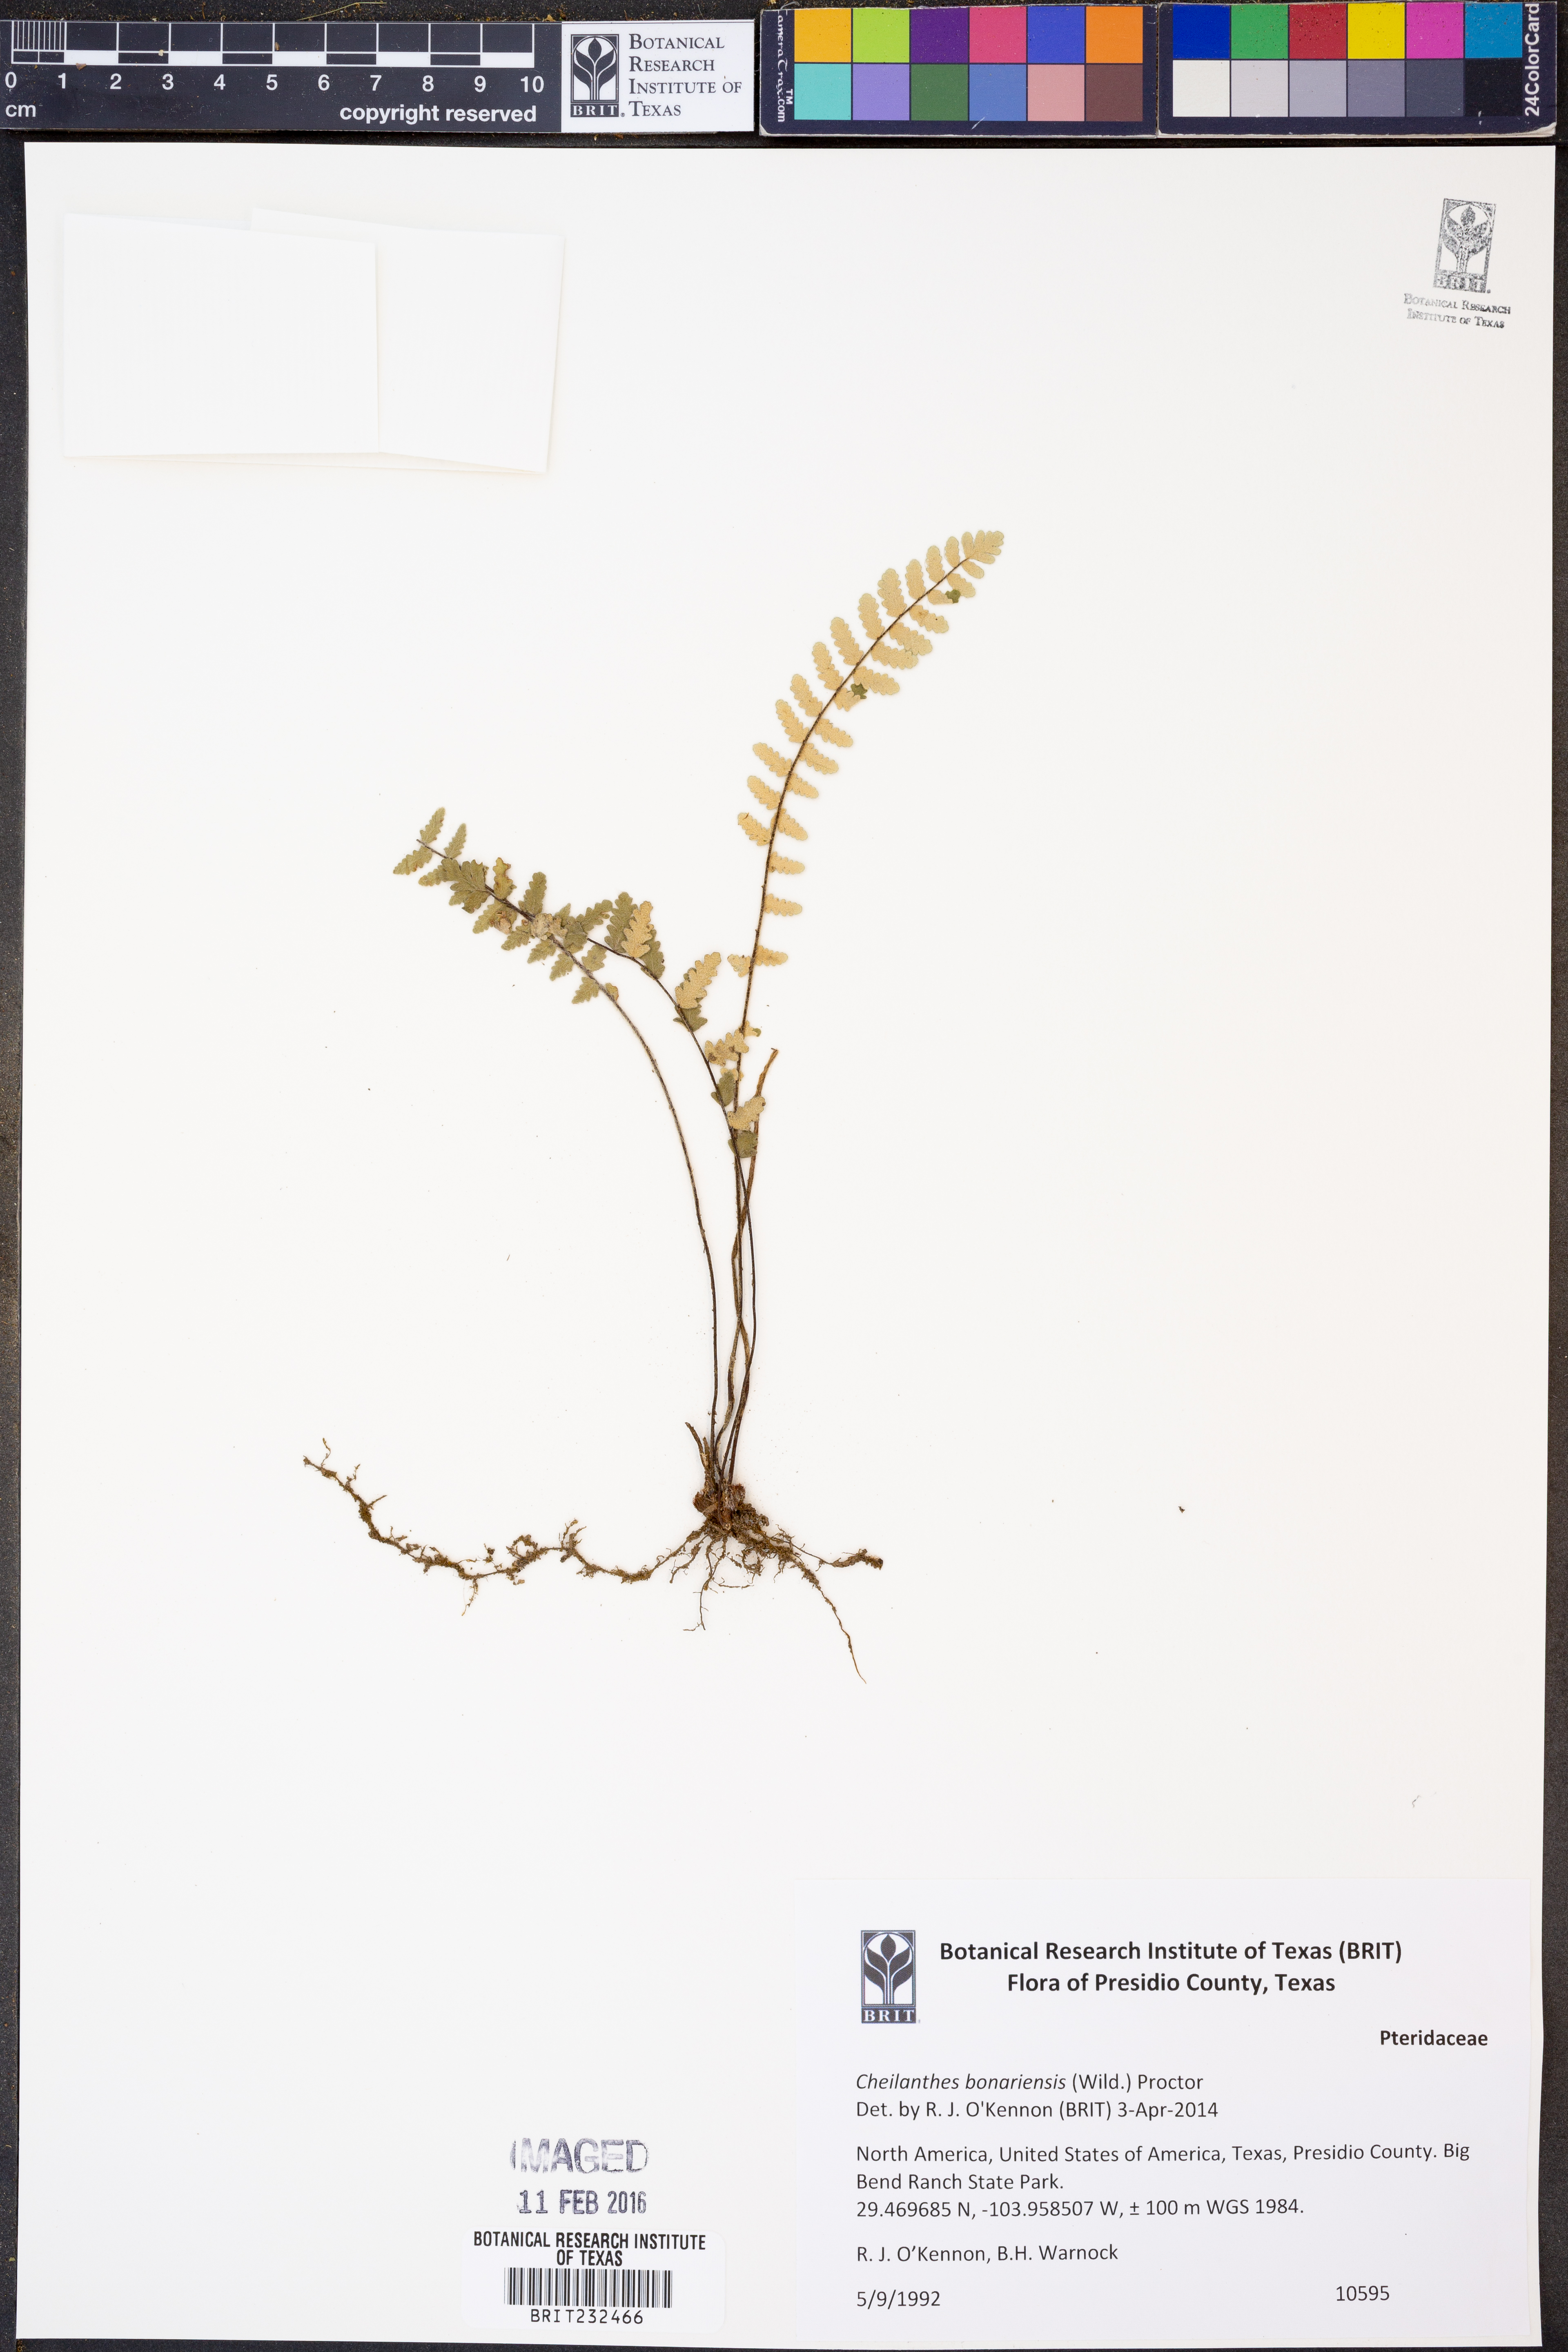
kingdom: Plantae
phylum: Tracheophyta
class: Polypodiopsida
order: Polypodiales
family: Pteridaceae
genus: Myriopteris
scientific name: Myriopteris aurea
